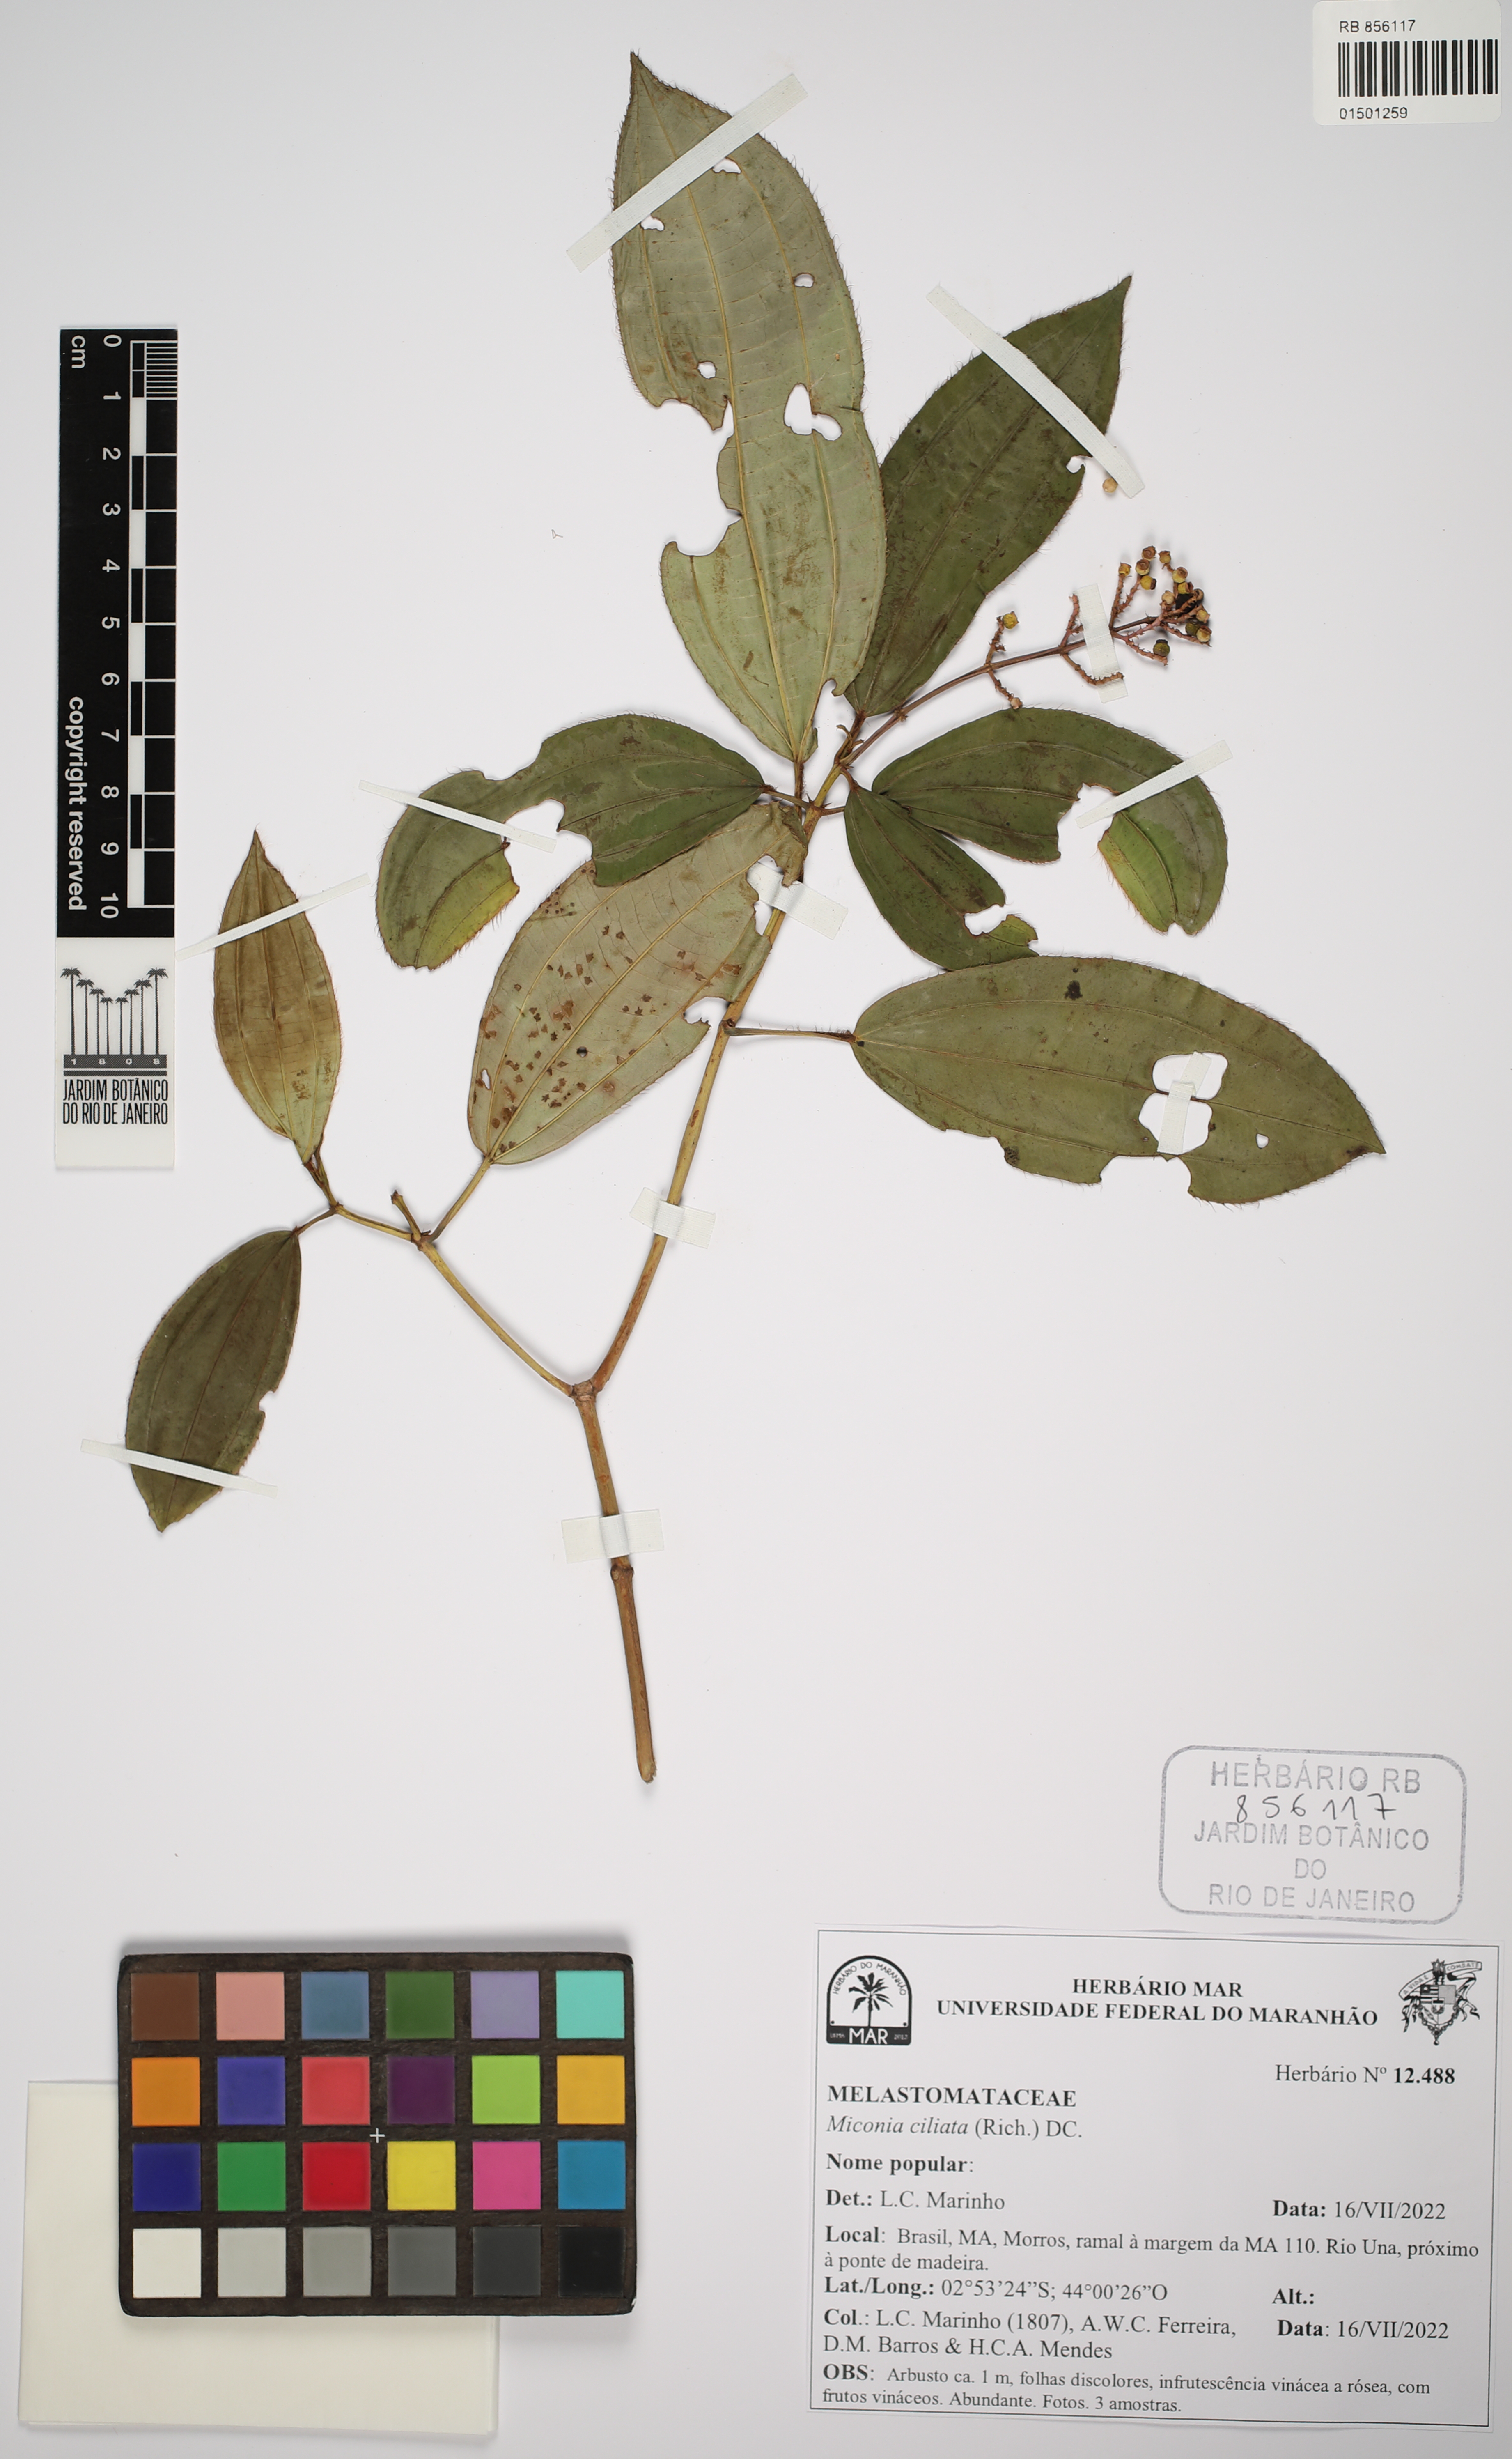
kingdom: Plantae
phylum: Tracheophyta
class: Magnoliopsida
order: Myrtales
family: Melastomataceae
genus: Miconia
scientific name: Miconia ciliata
